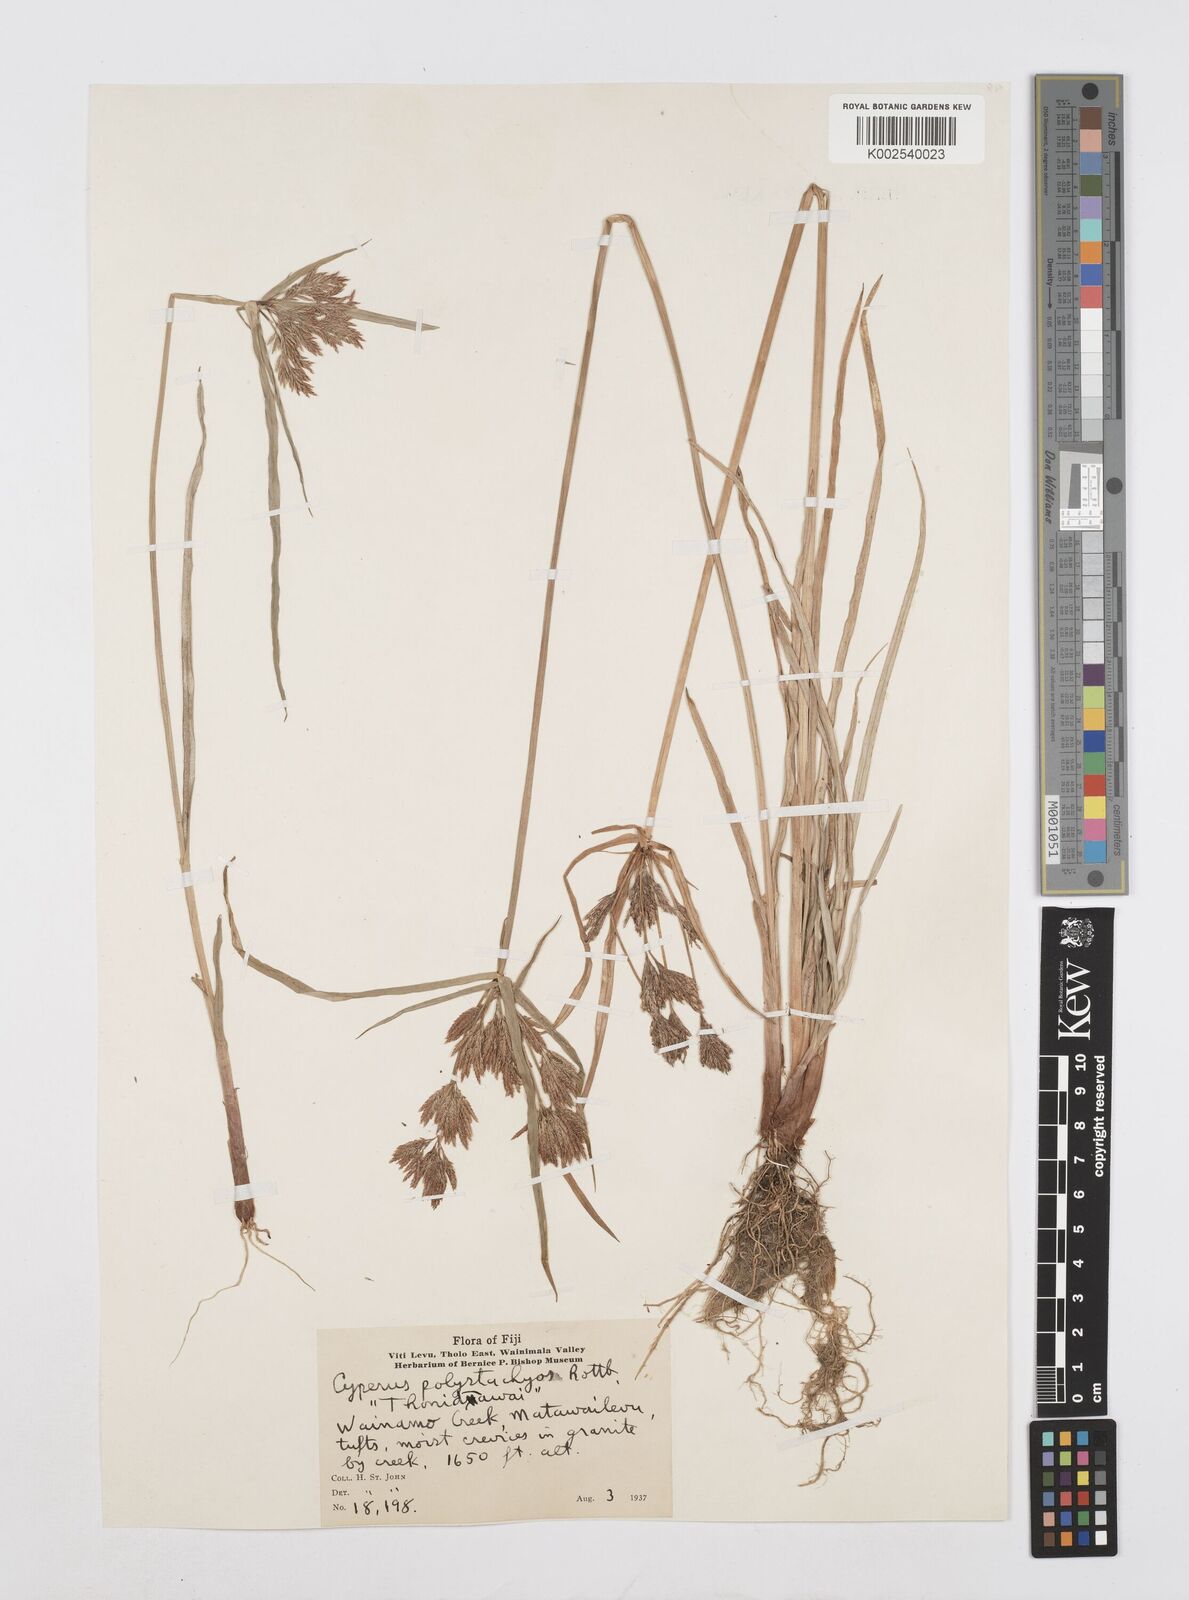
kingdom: Plantae
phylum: Tracheophyta
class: Liliopsida
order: Poales
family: Cyperaceae
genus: Cyperus
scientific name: Cyperus polystachyos
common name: Bunchy flat sedge
